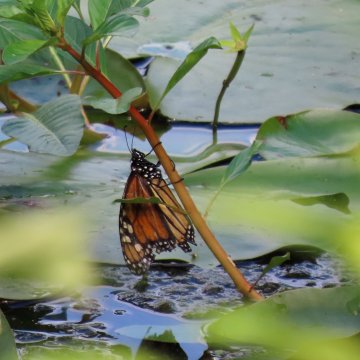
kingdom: Animalia
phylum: Arthropoda
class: Insecta
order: Lepidoptera
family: Nymphalidae
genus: Danaus
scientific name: Danaus plexippus
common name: Monarch
